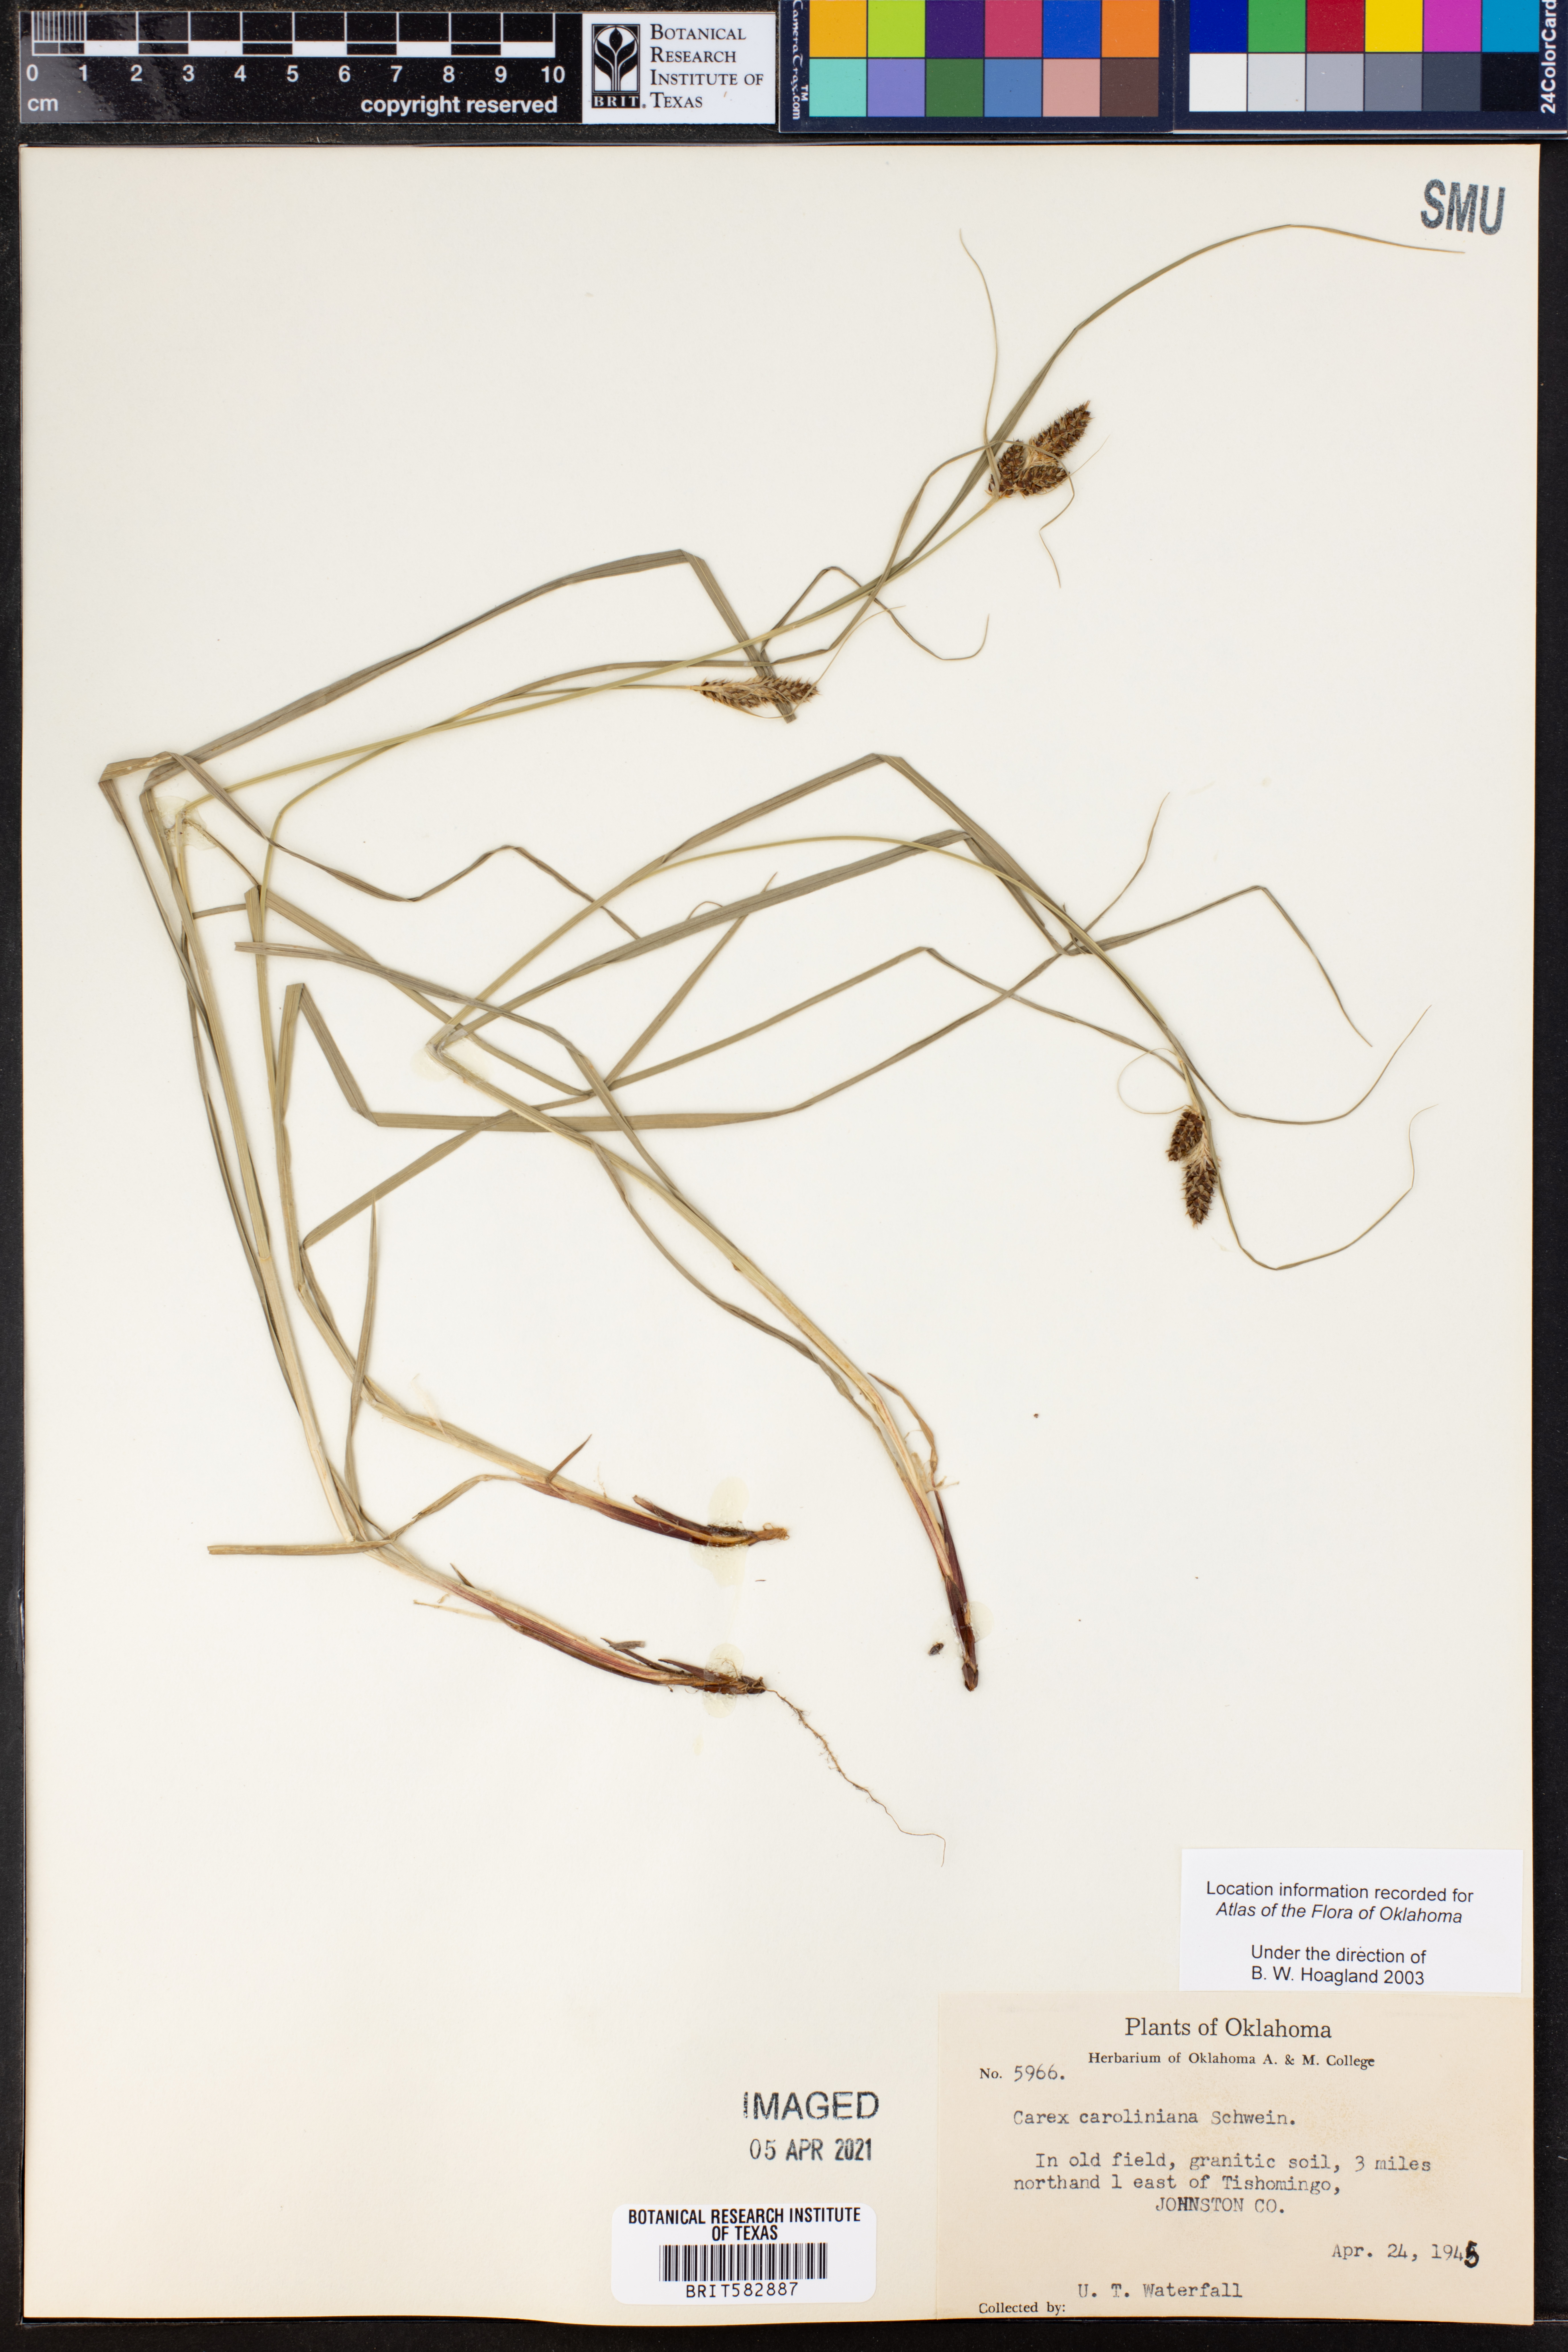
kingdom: Plantae
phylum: Tracheophyta
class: Liliopsida
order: Poales
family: Cyperaceae
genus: Carex
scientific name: Carex caroliniana
